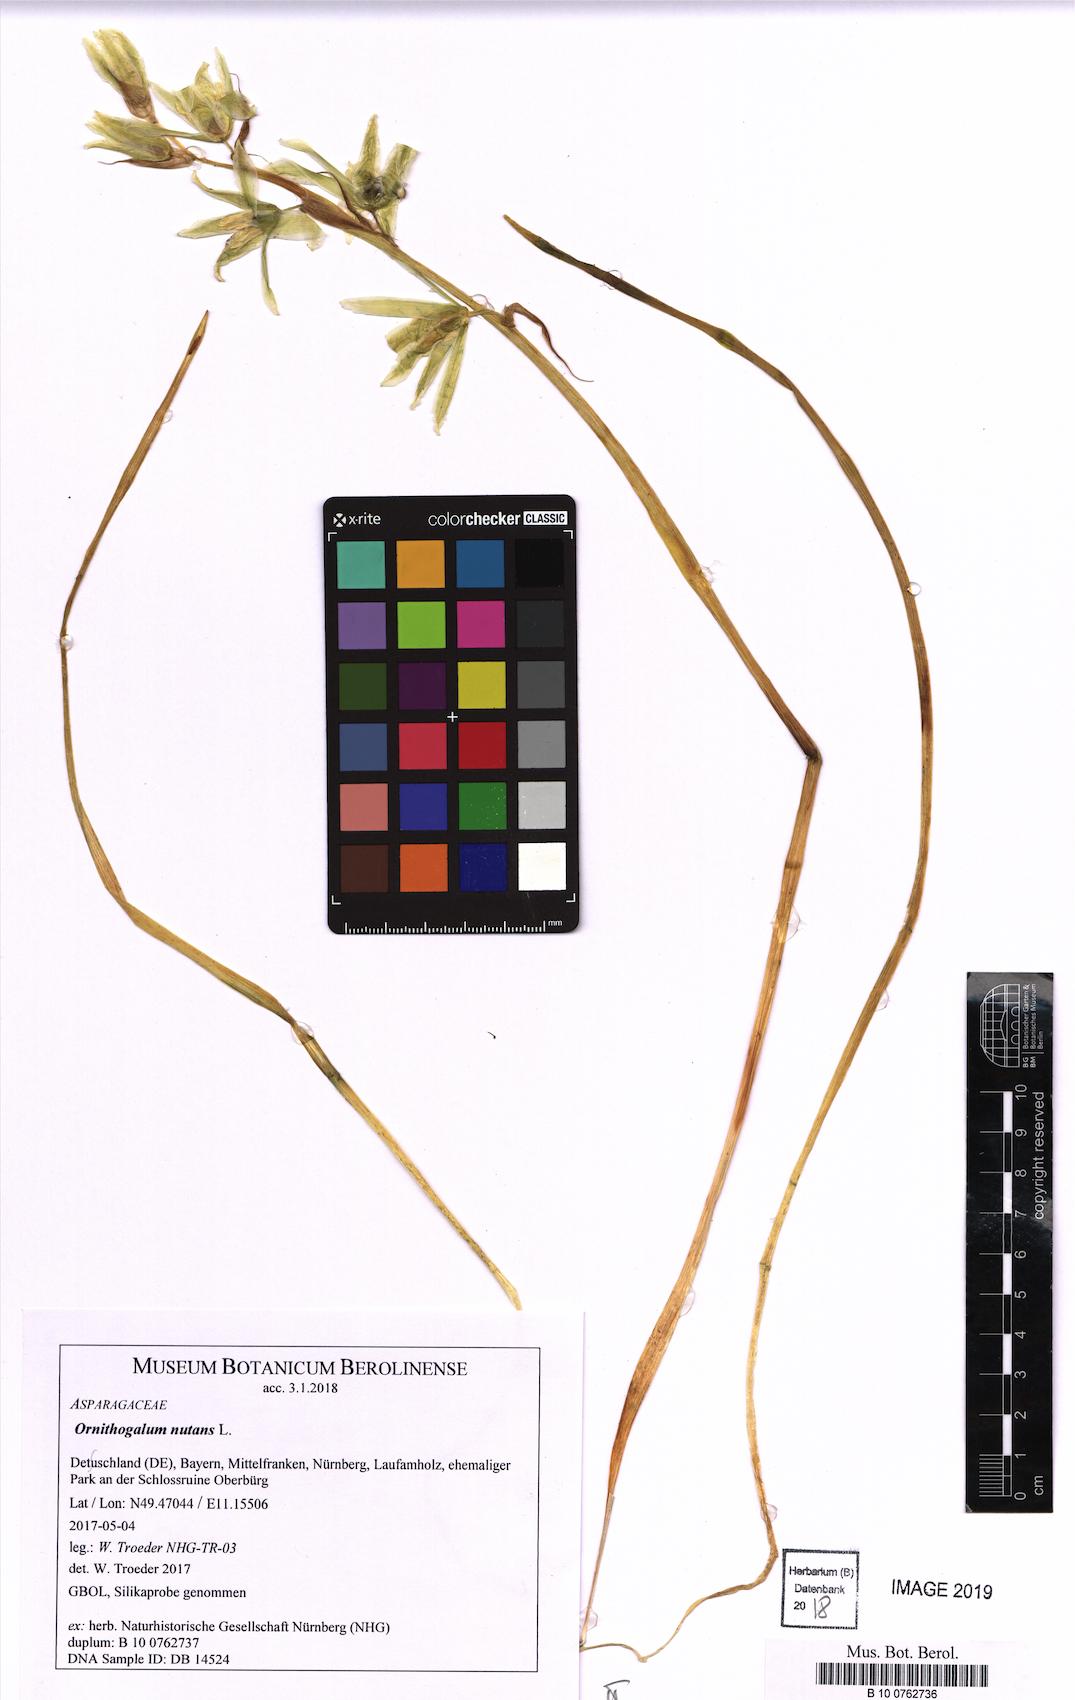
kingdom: Plantae
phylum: Tracheophyta
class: Liliopsida
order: Asparagales
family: Asparagaceae
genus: Ornithogalum
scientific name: Ornithogalum nutans
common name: Drooping star-of-bethlehem
